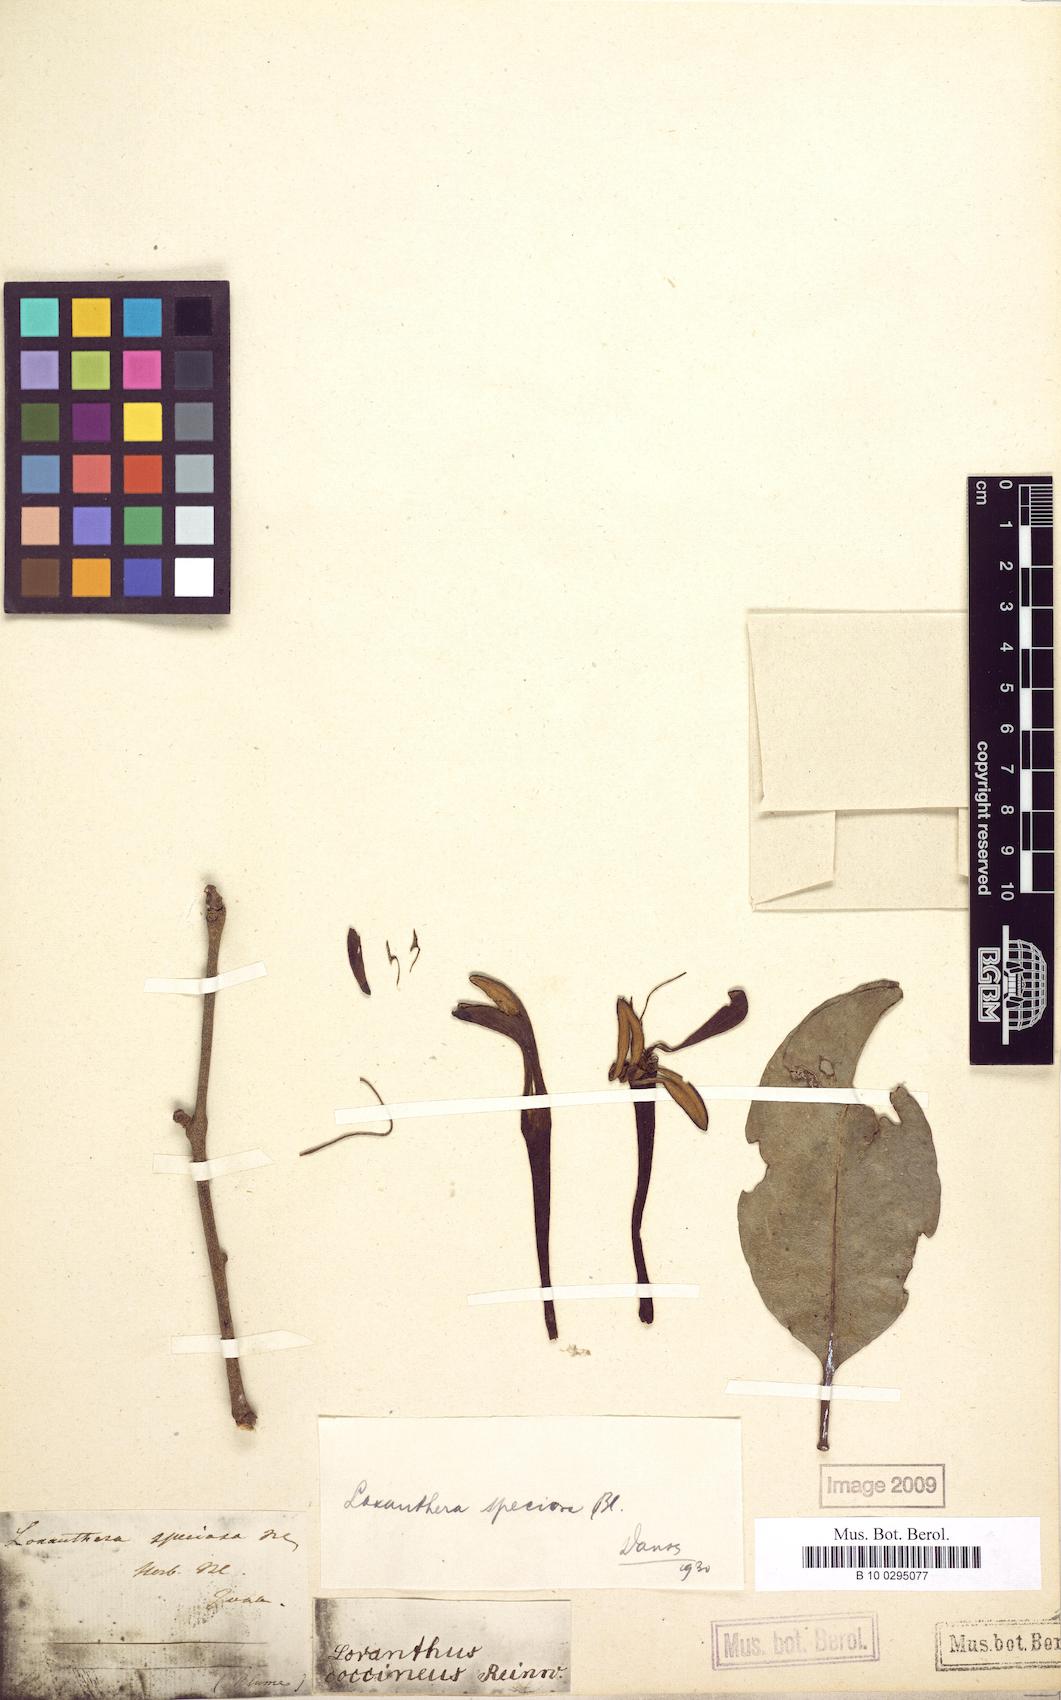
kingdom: Plantae
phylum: Tracheophyta
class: Magnoliopsida
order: Santalales
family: Loranthaceae
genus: Loxanthera
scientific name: Loxanthera speciosa
